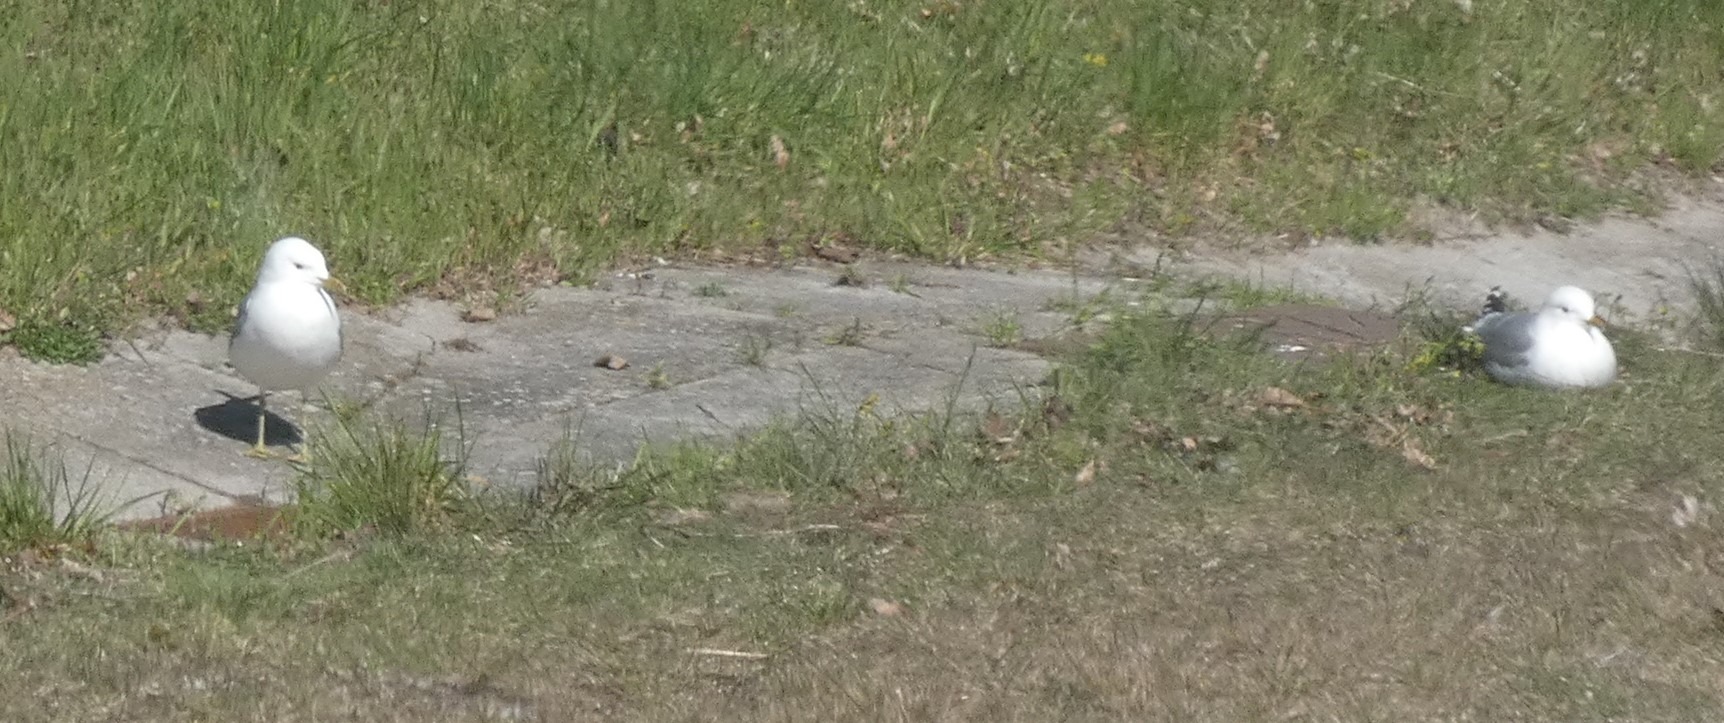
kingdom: Animalia
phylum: Chordata
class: Aves
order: Charadriiformes
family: Laridae
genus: Larus
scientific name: Larus canus
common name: Stormmåge
